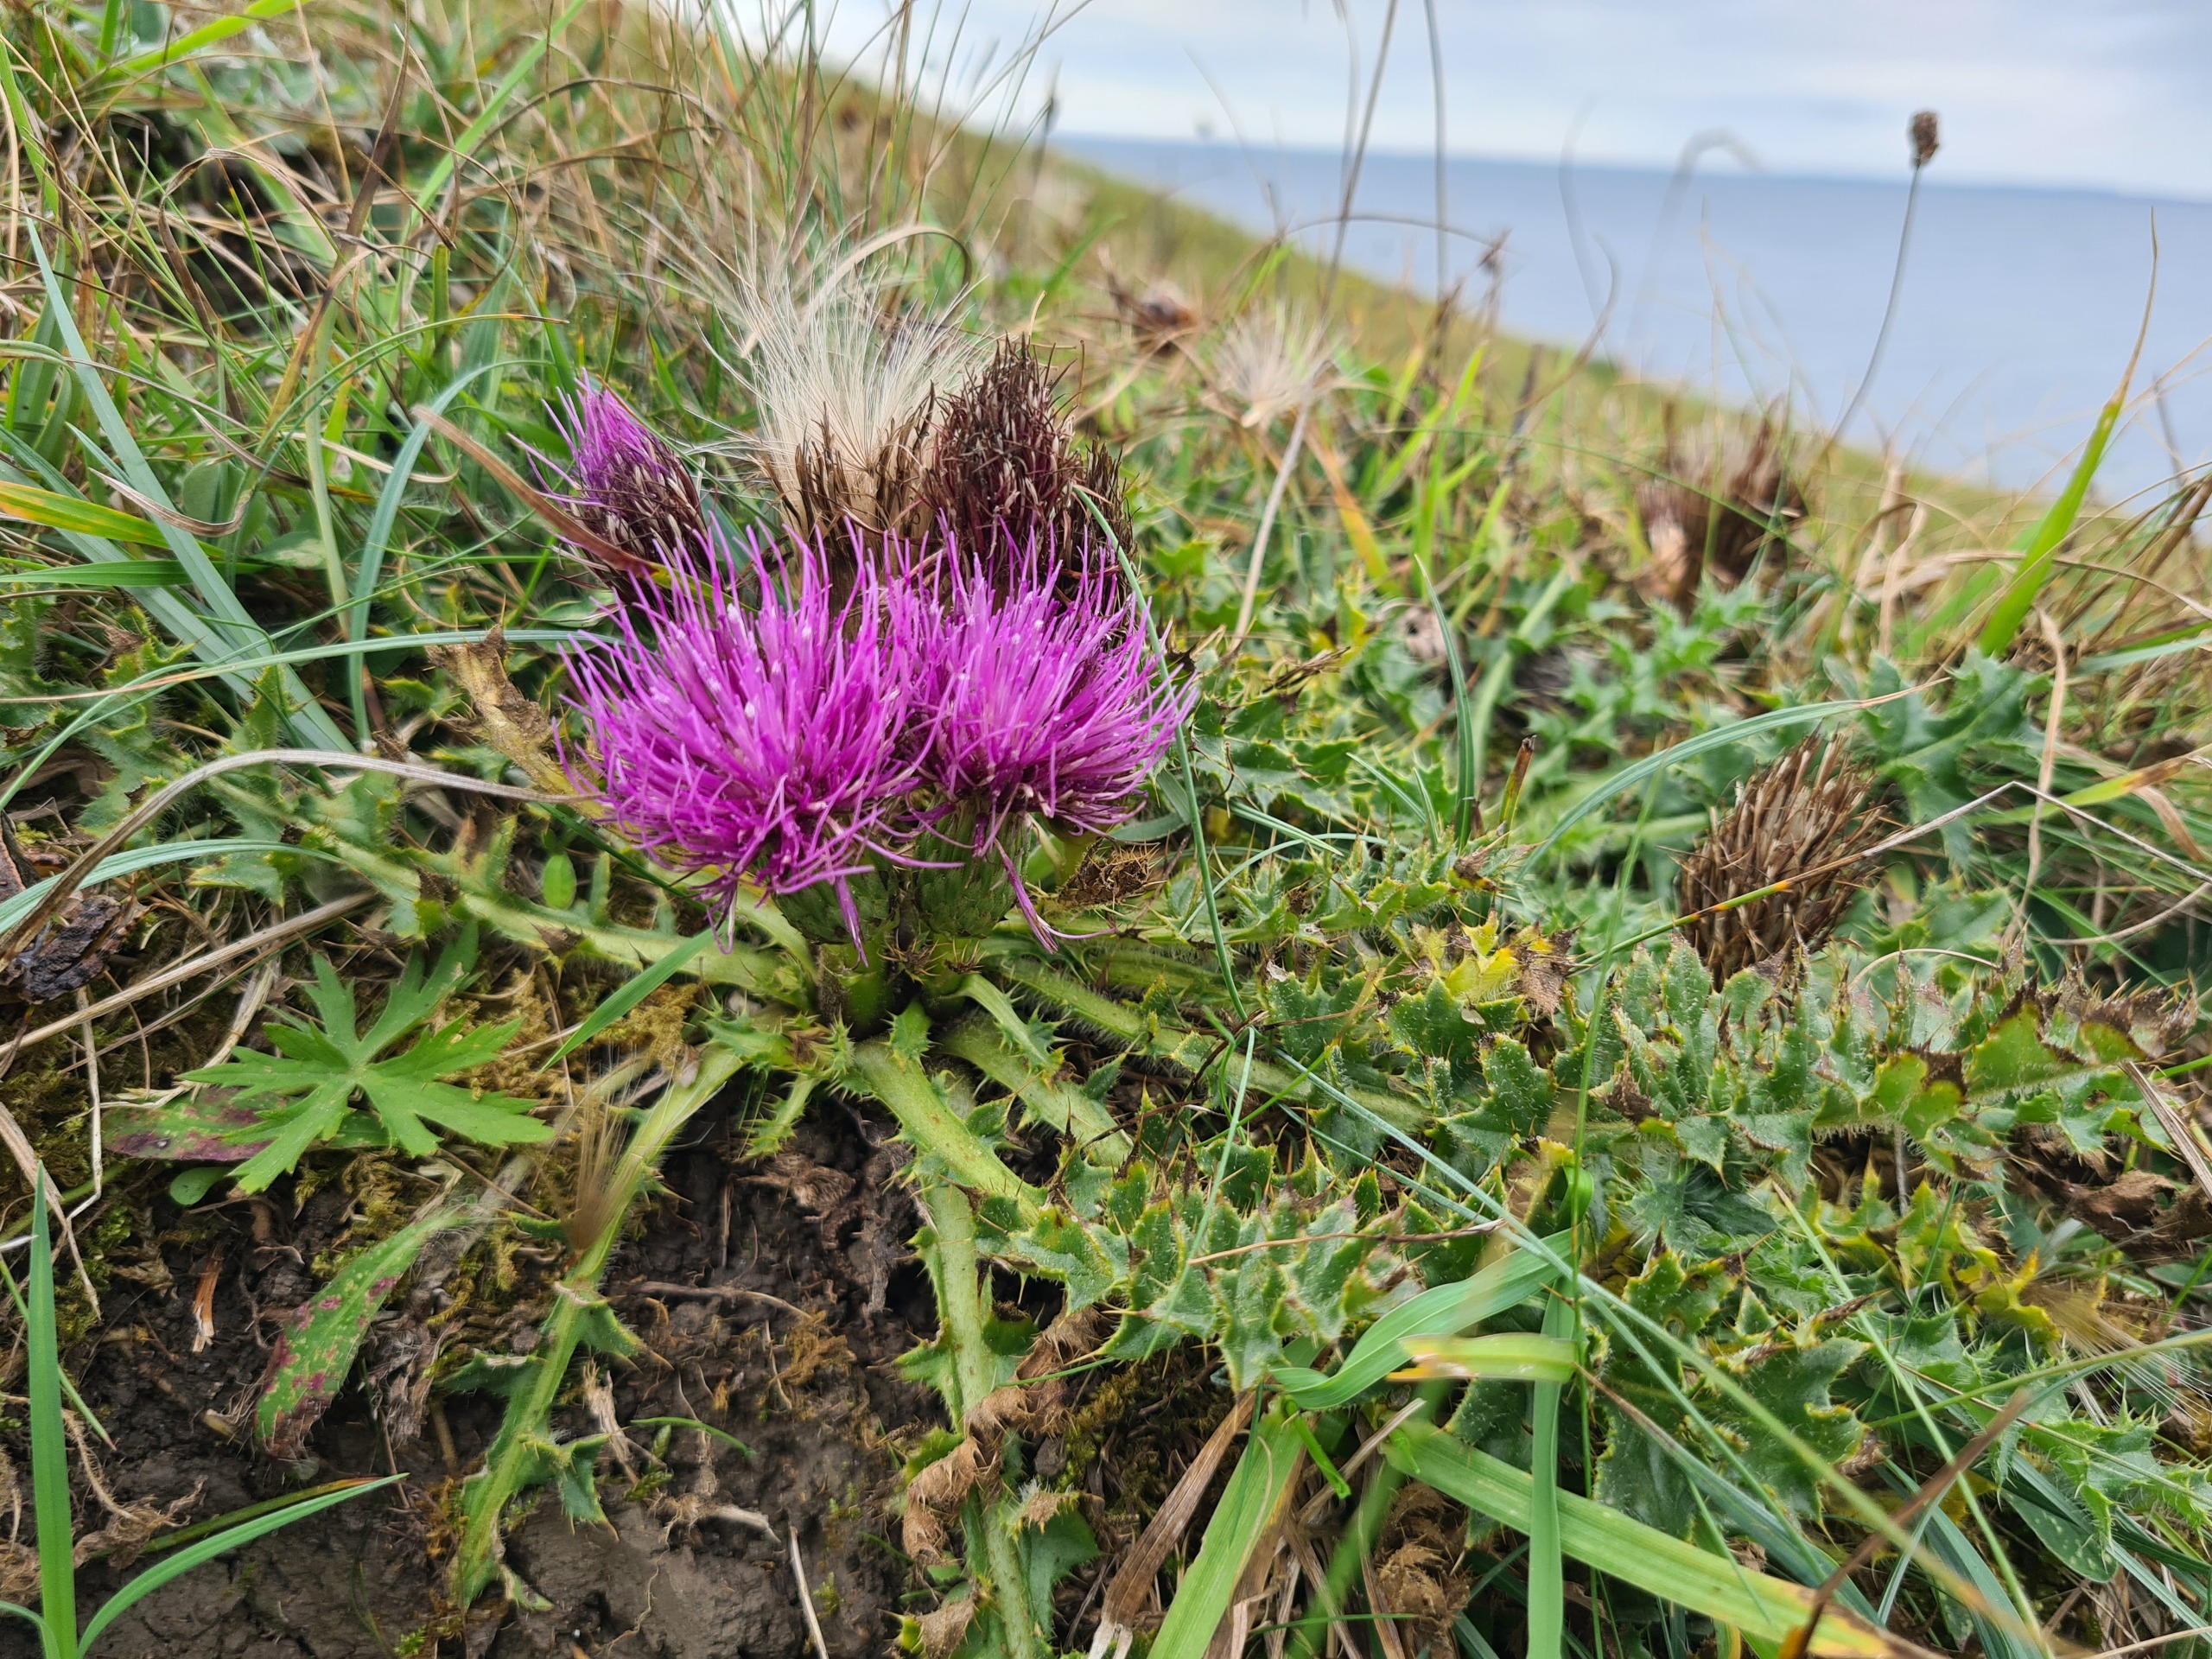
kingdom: Plantae
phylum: Tracheophyta
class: Magnoliopsida
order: Asterales
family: Asteraceae
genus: Cirsium
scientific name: Cirsium acaule
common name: Lav tidsel
